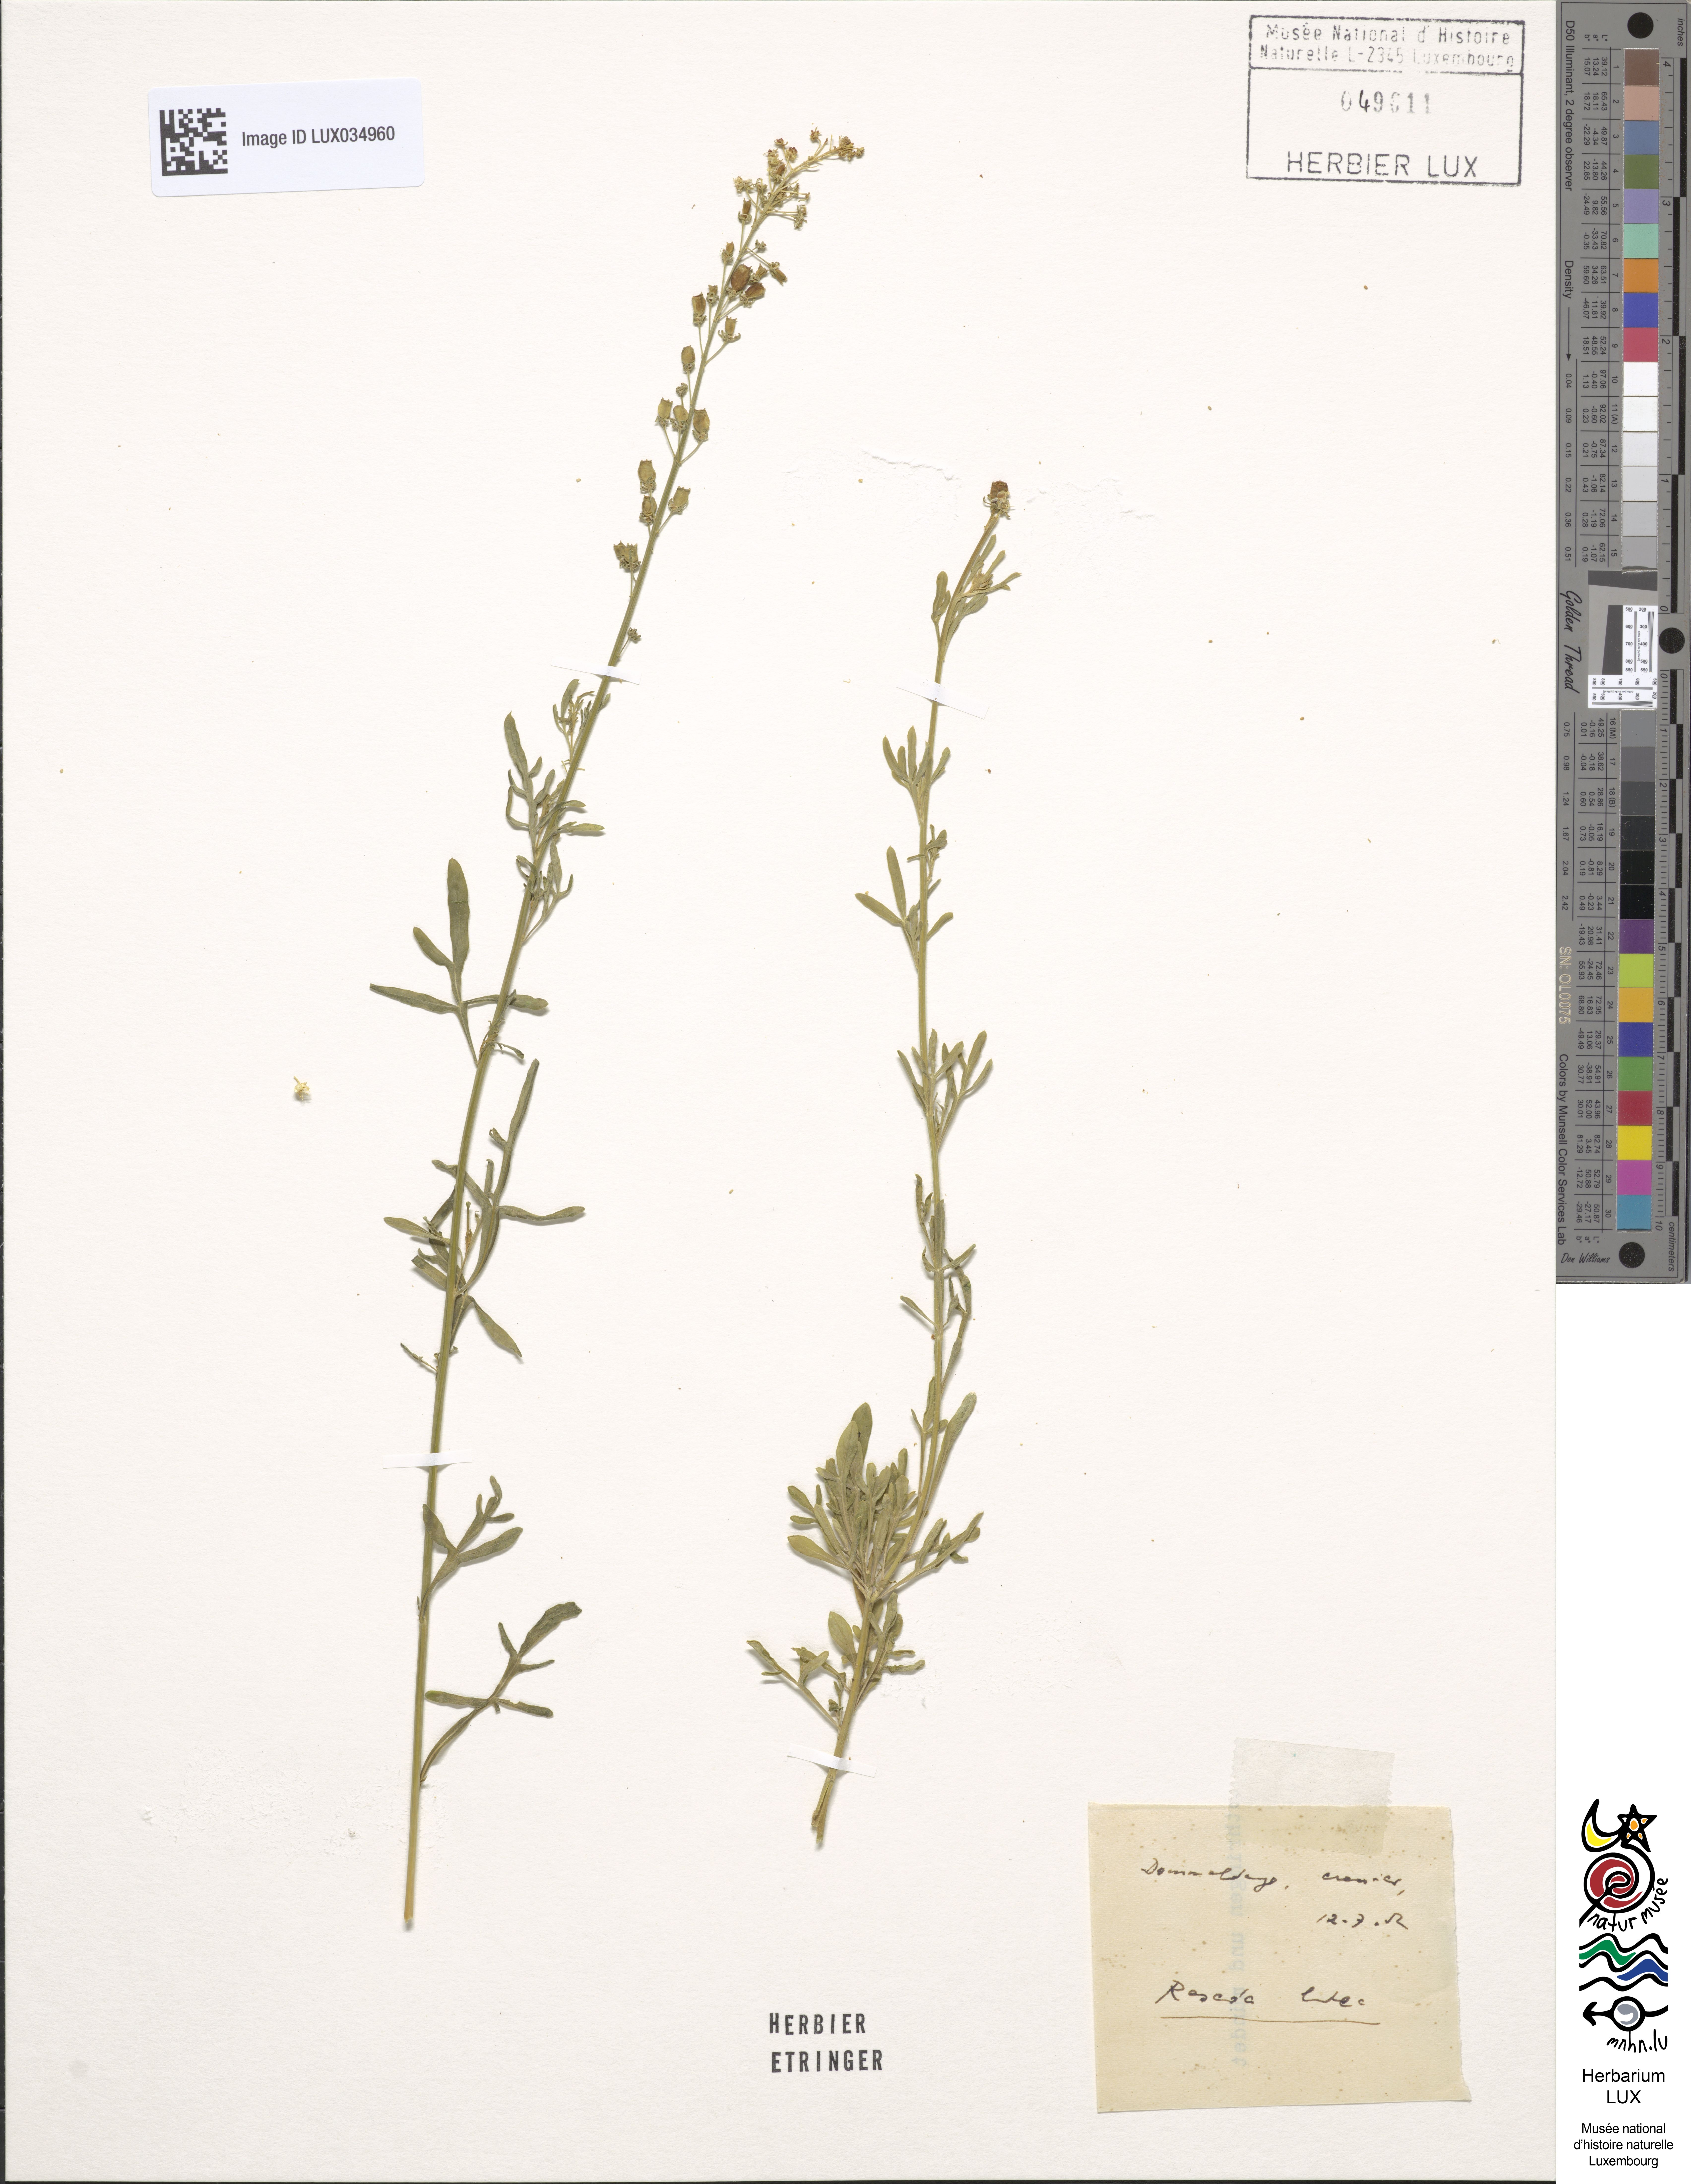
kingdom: Plantae
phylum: Tracheophyta
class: Magnoliopsida
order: Brassicales
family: Resedaceae
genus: Reseda
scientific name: Reseda luteola
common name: Weld
